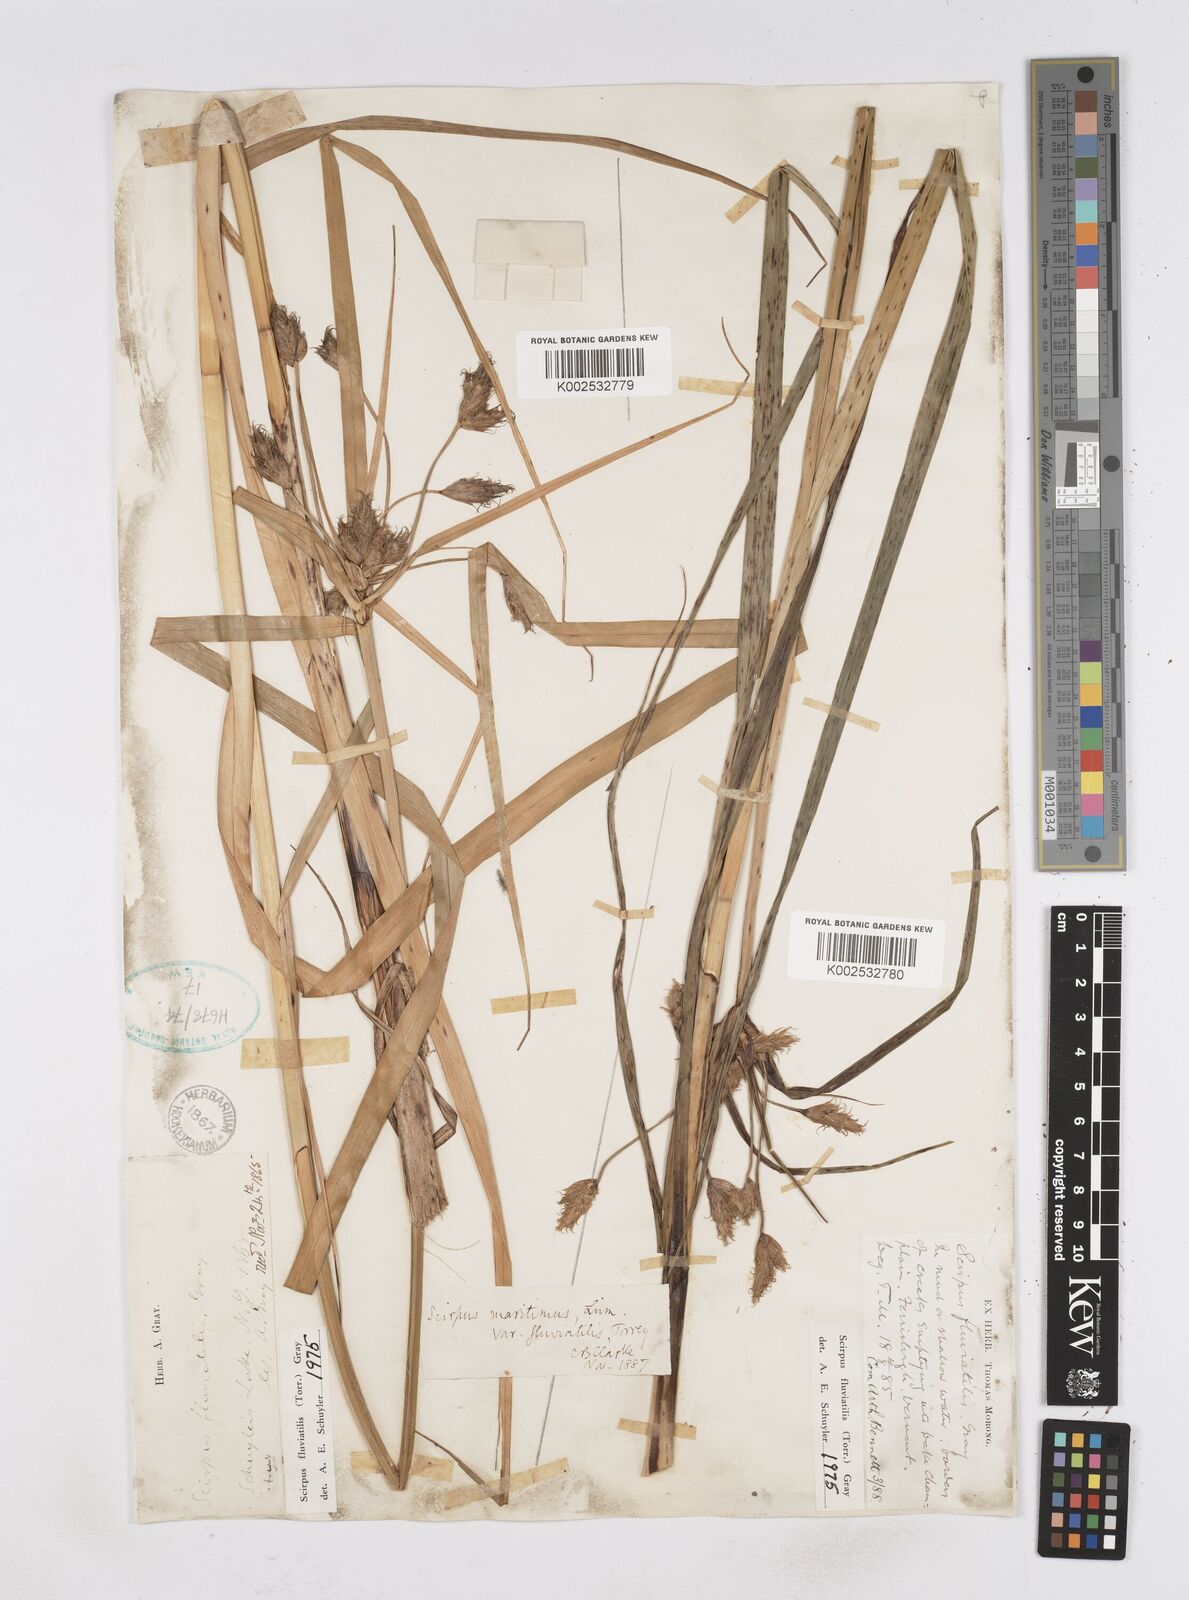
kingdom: Plantae
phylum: Tracheophyta
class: Liliopsida
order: Poales
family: Cyperaceae
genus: Bolboschoenus
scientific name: Bolboschoenus
